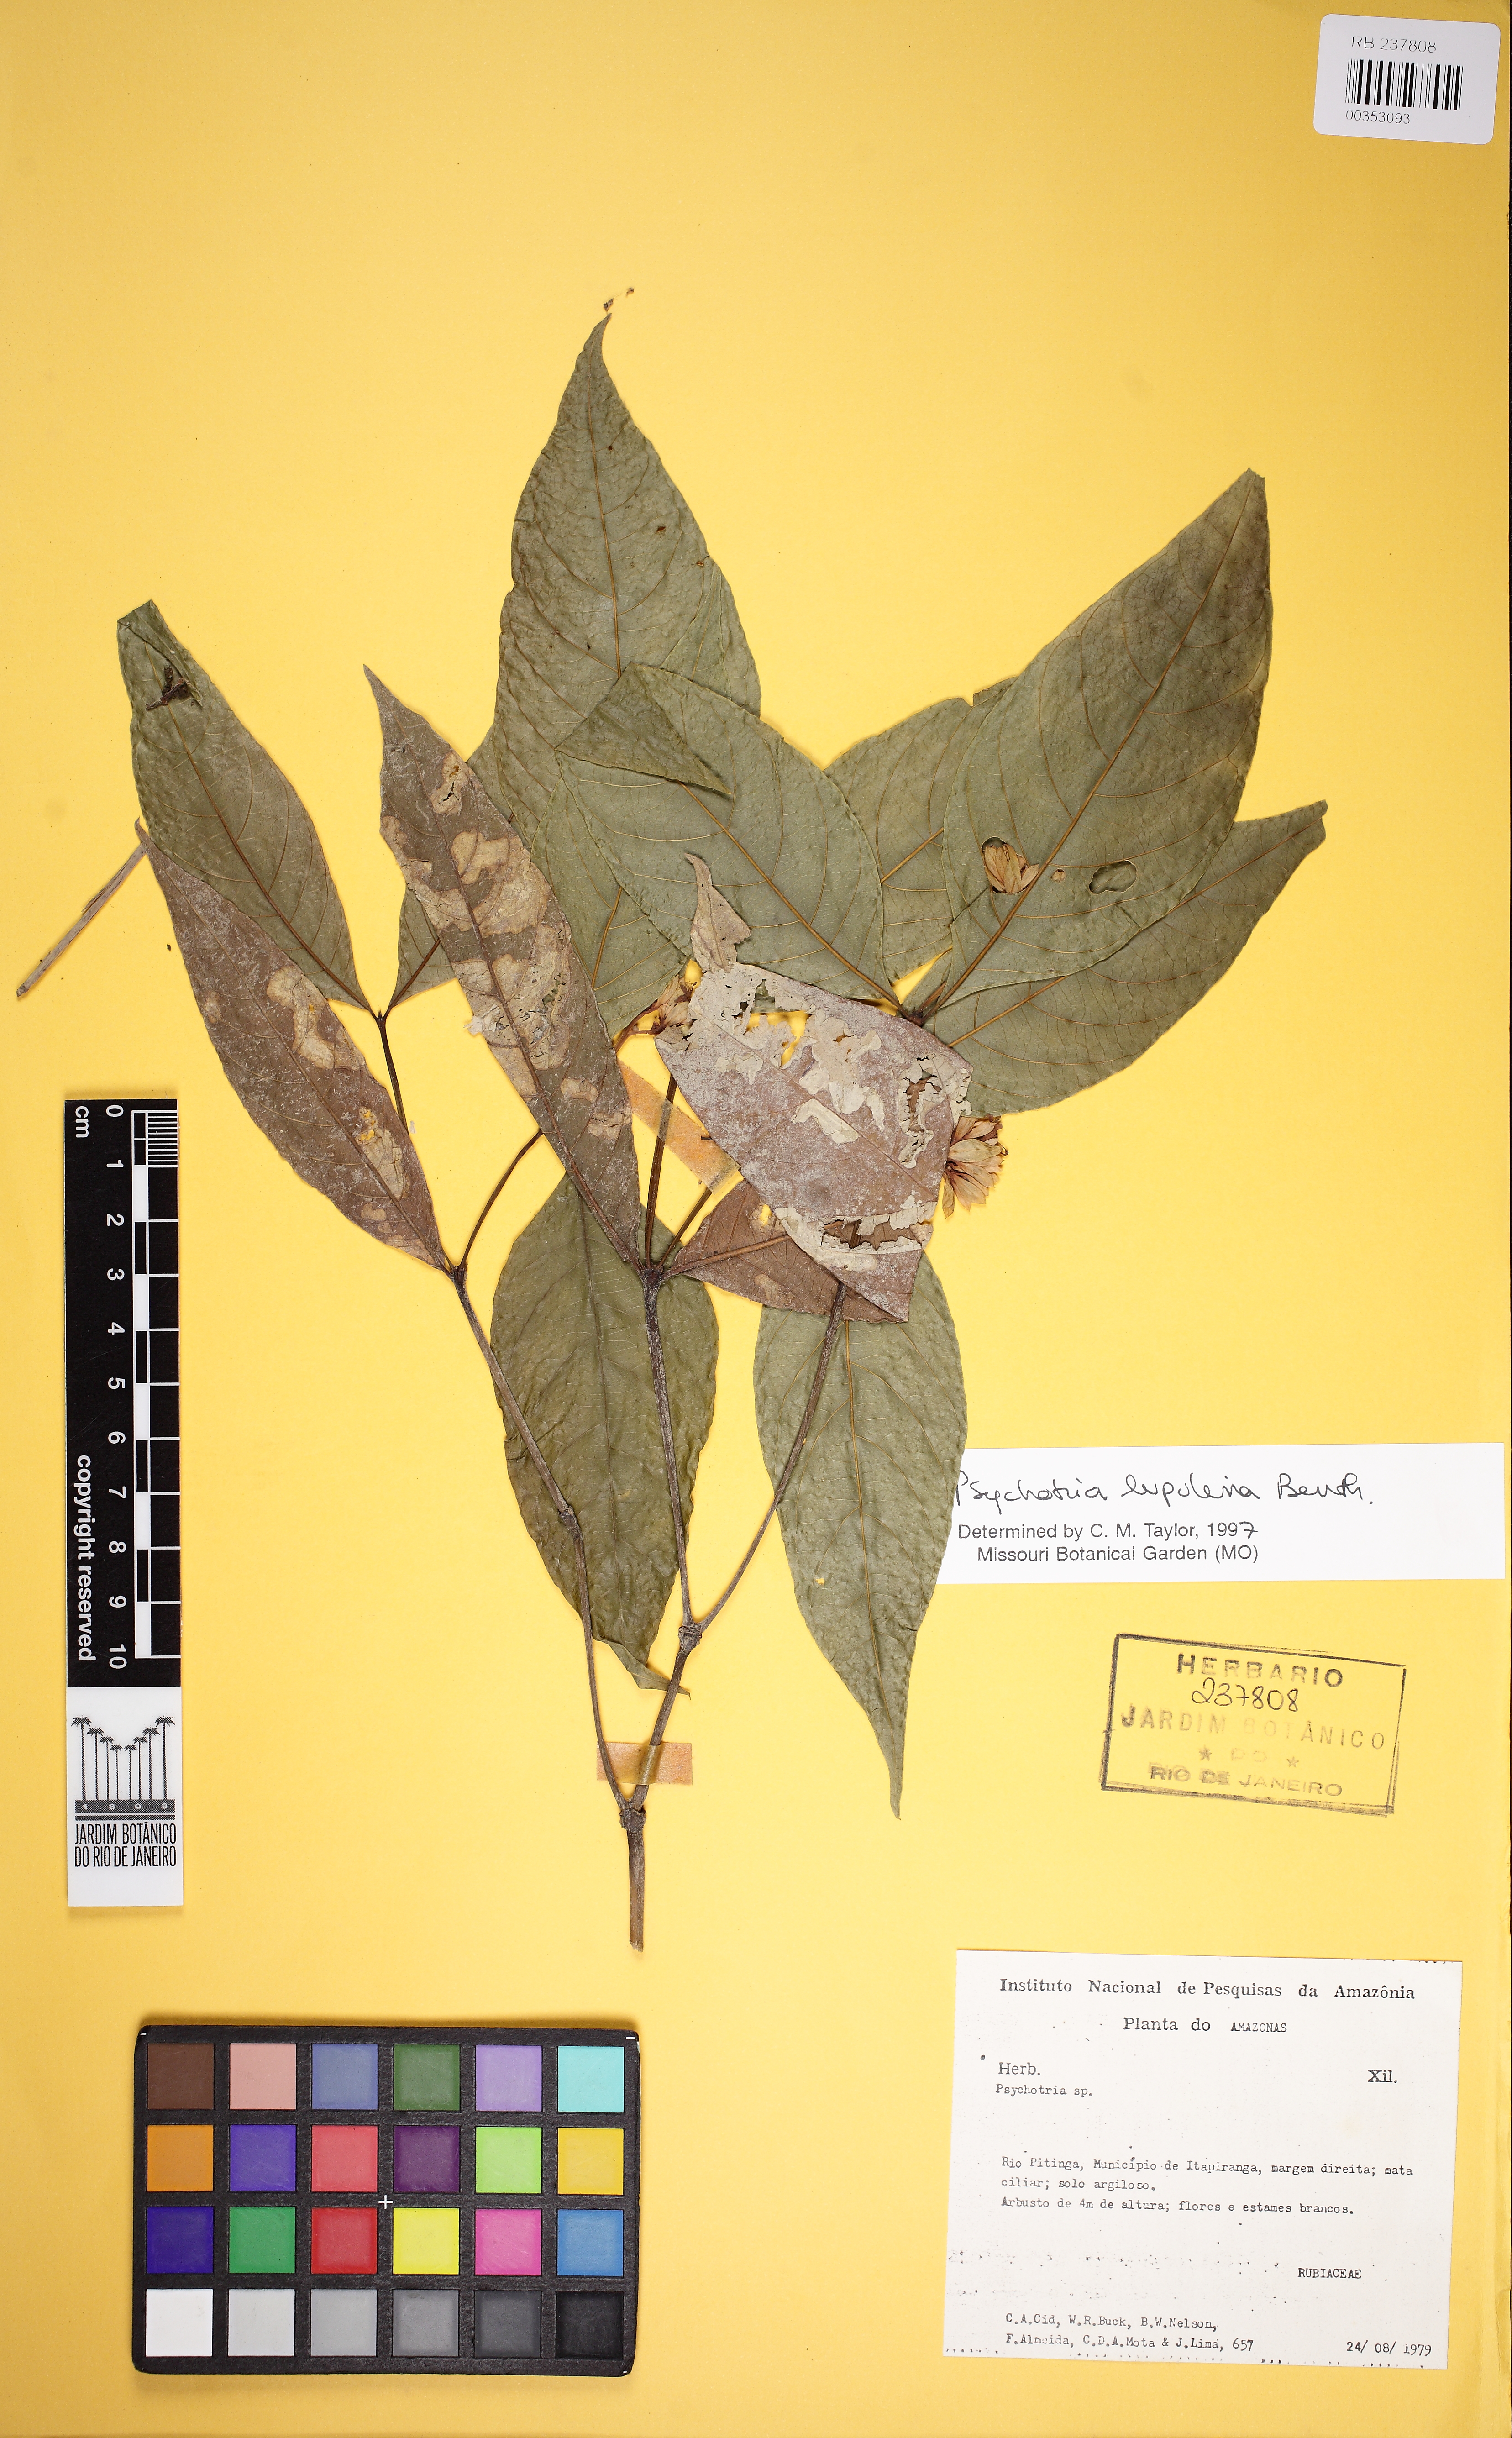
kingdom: Plantae
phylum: Tracheophyta
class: Magnoliopsida
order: Gentianales
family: Rubiaceae
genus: Palicourea
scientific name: Palicourea justiciifolia
